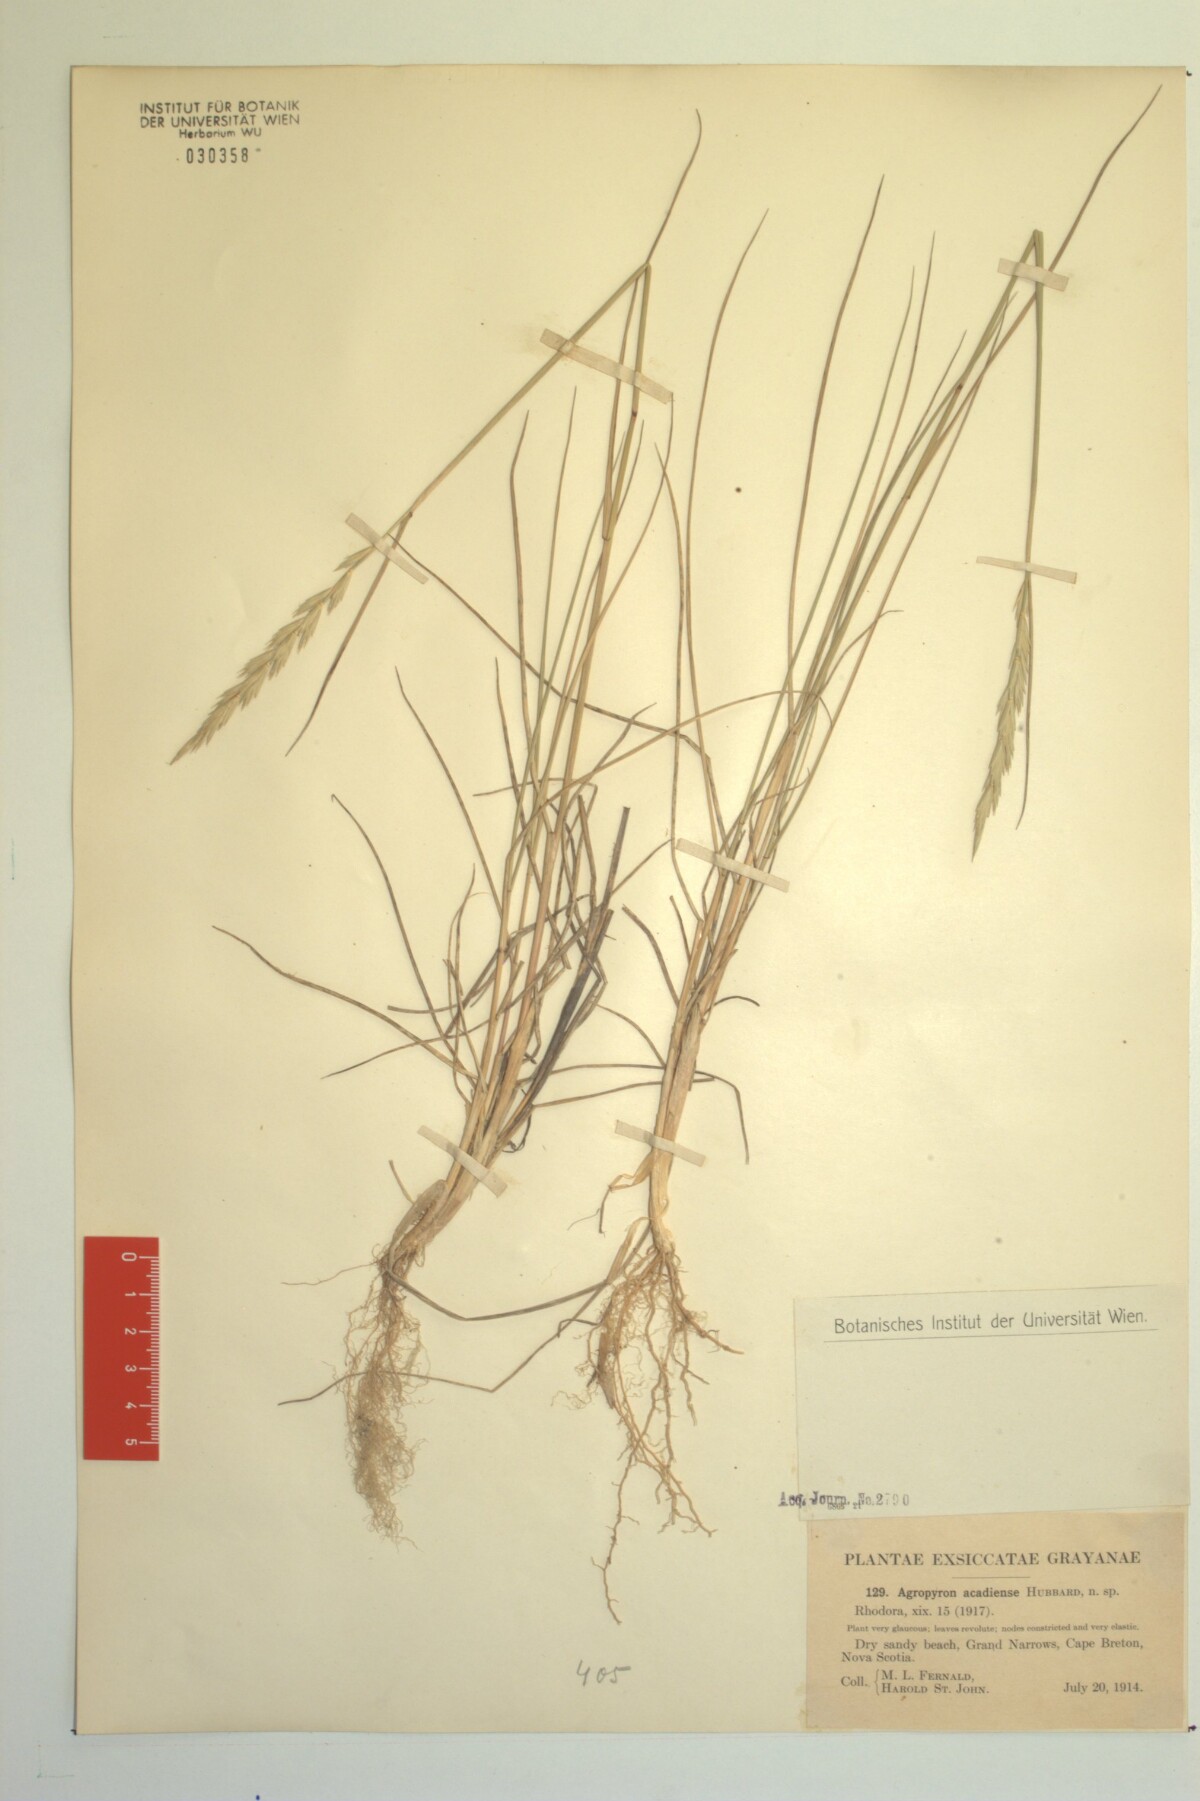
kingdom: Plantae
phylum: Tracheophyta
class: Liliopsida
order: Poales
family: Poaceae
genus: Thinopyrum
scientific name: Thinopyrum acutum
